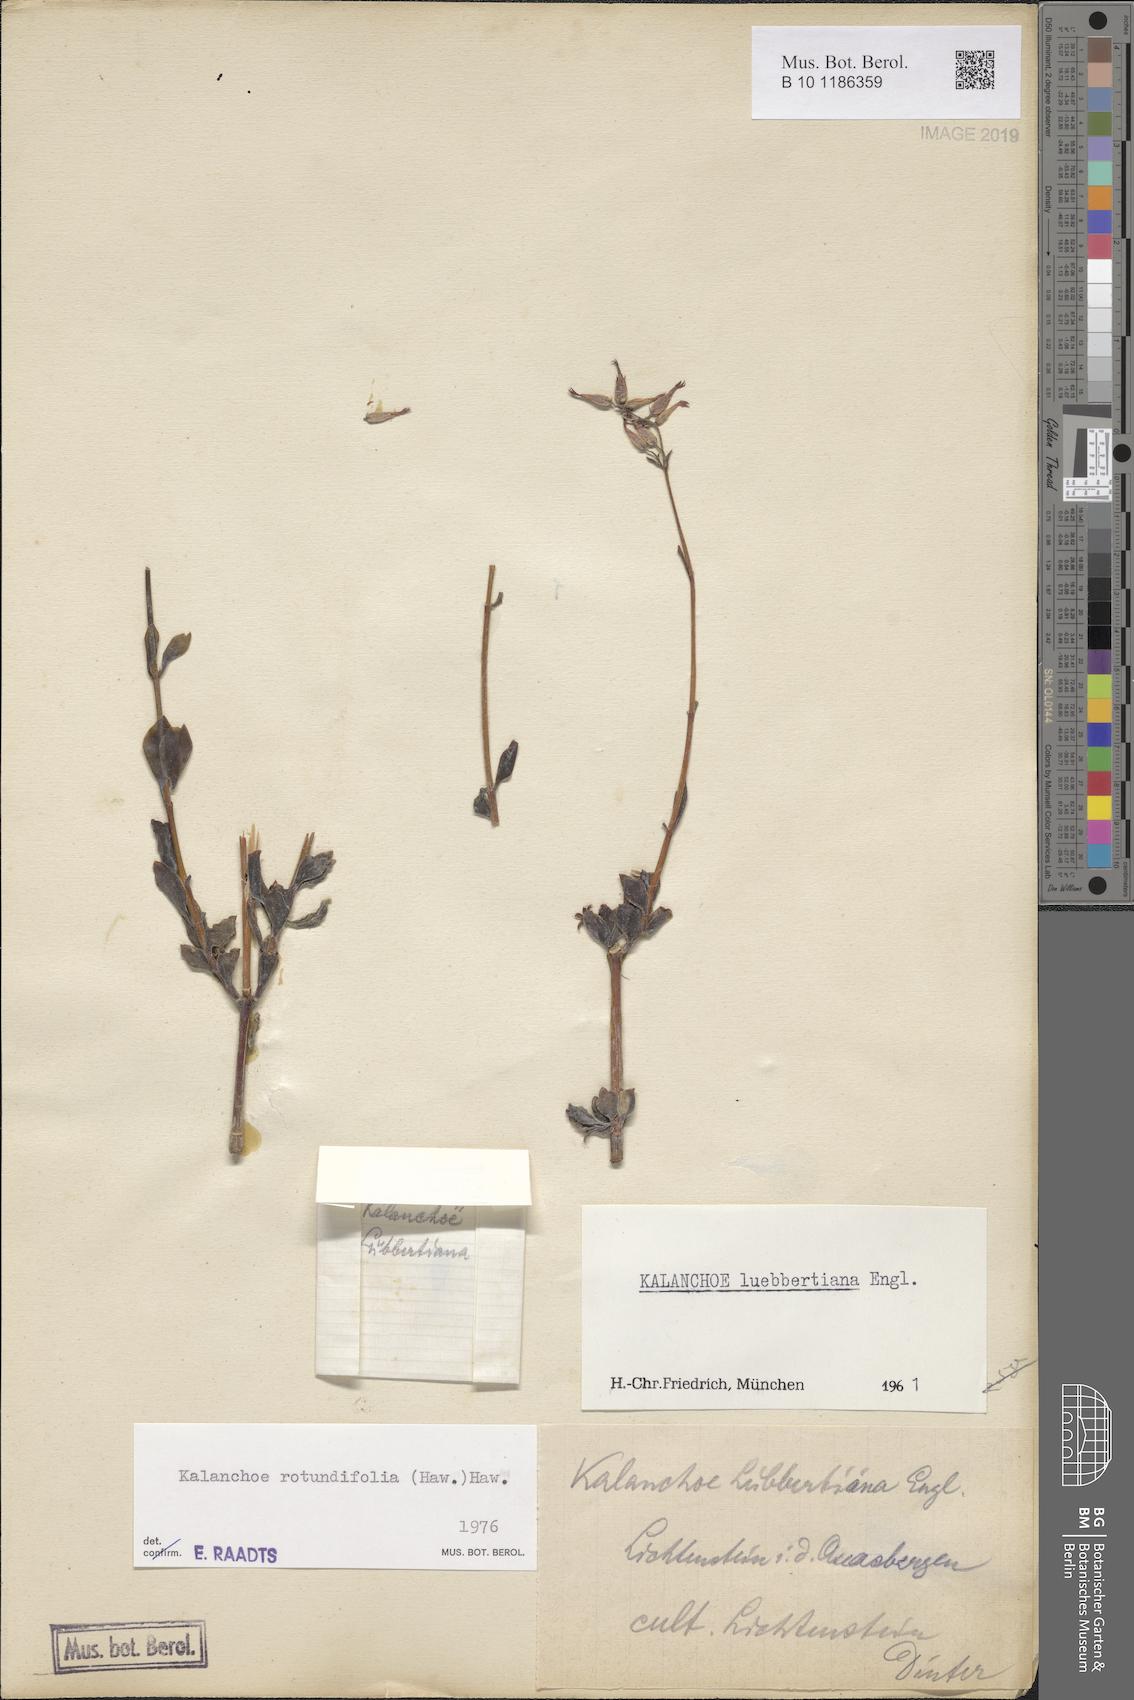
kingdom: Plantae
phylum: Tracheophyta
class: Magnoliopsida
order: Saxifragales
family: Crassulaceae
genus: Kalanchoe
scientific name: Kalanchoe rotundifolia
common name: Common kalanchoe
